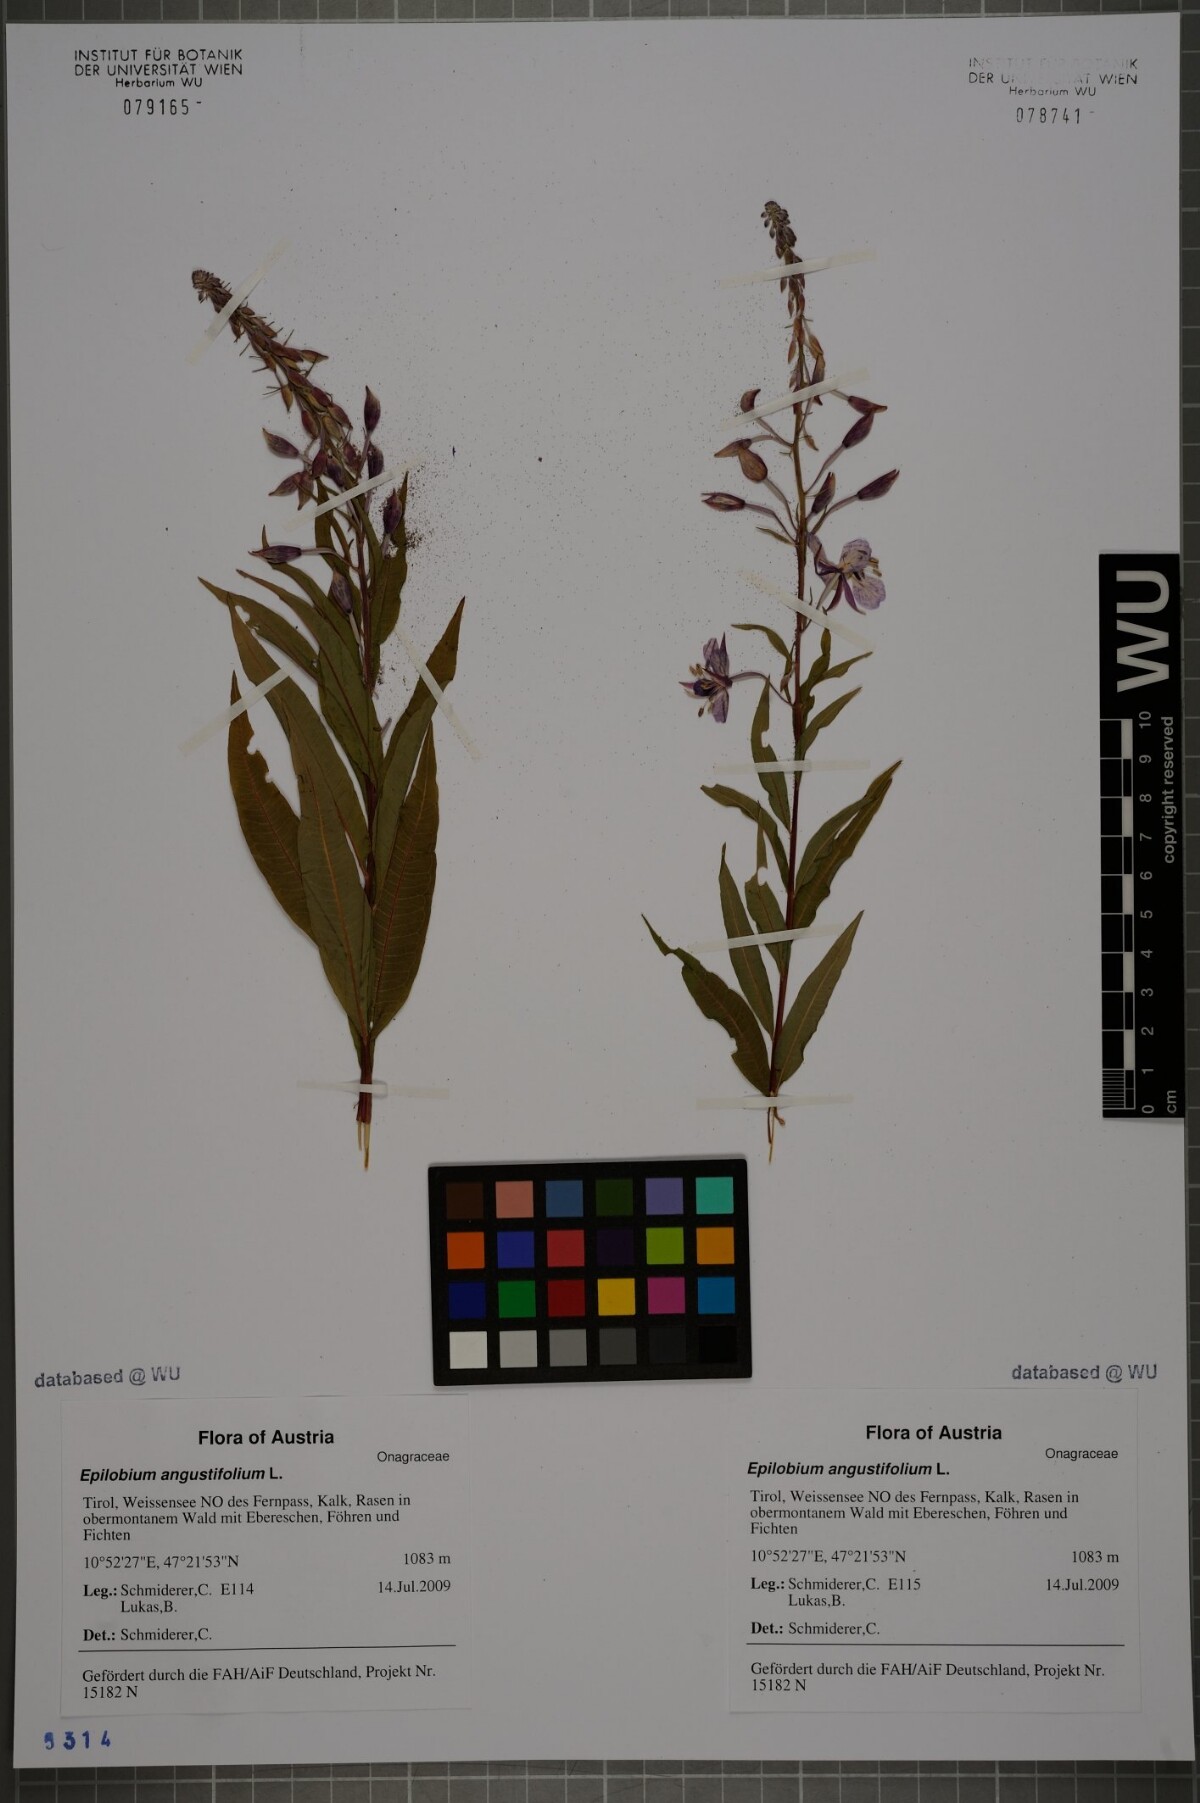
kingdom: Plantae
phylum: Tracheophyta
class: Magnoliopsida
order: Myrtales
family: Onagraceae
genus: Chamaenerion
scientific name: Chamaenerion angustifolium
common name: Fireweed
